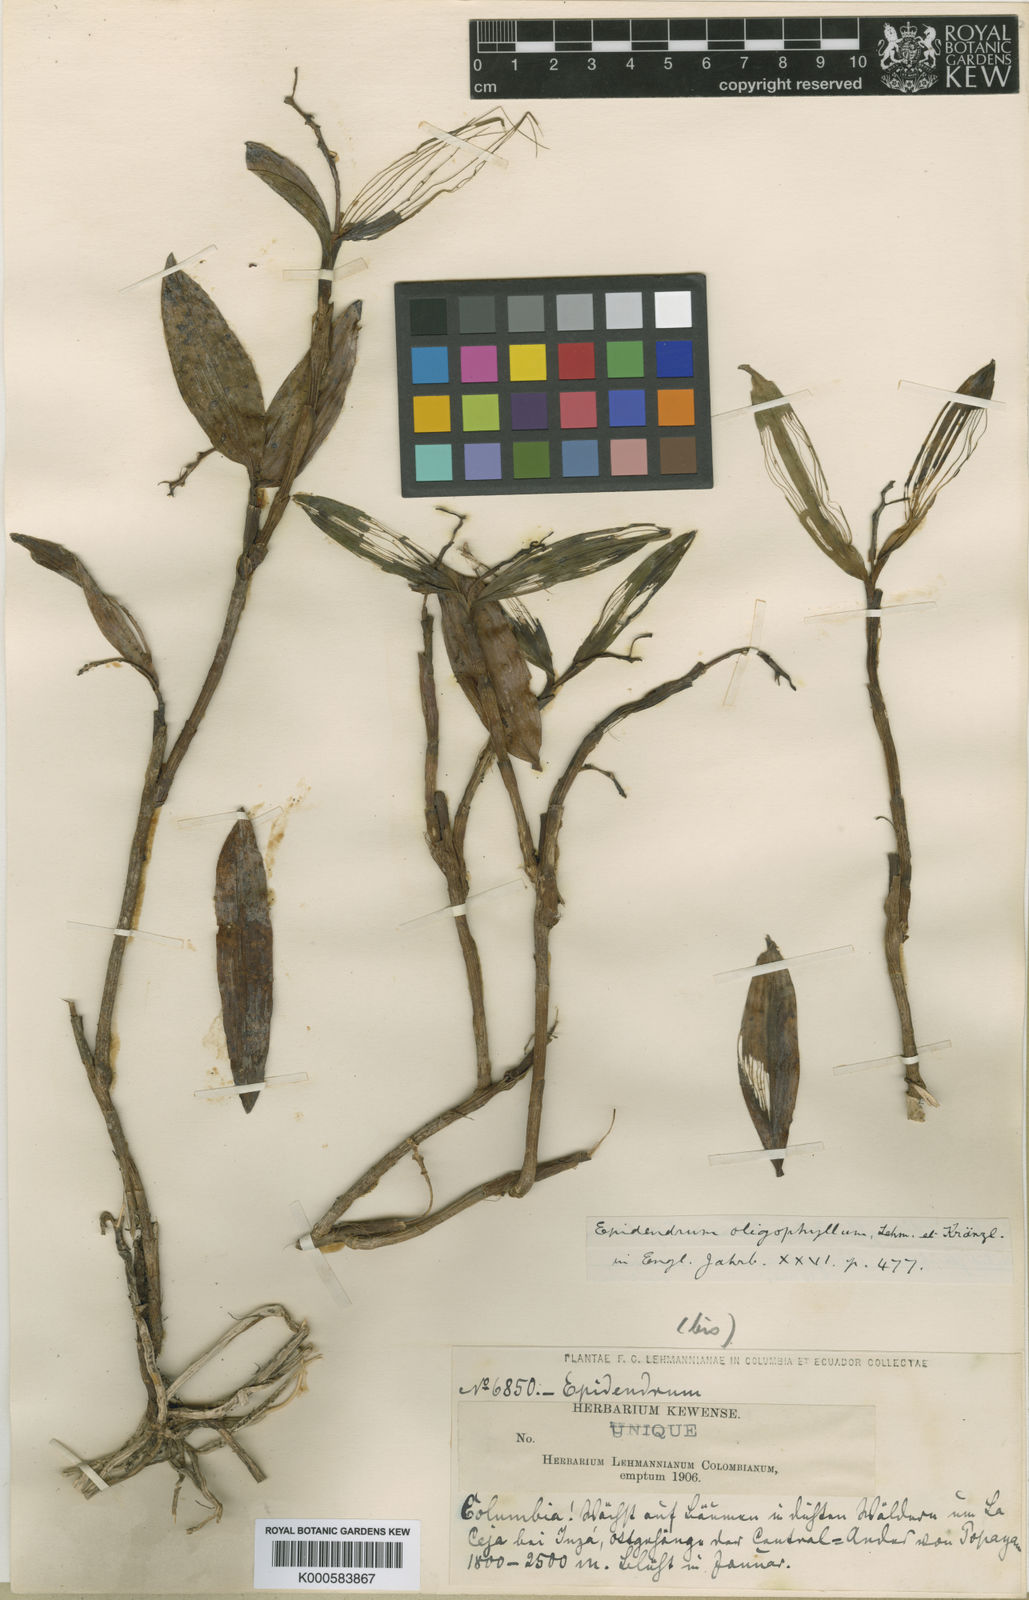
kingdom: Plantae
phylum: Tracheophyta
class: Liliopsida
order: Asparagales
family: Orchidaceae
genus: Epidendrum
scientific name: Epidendrum oligophyllum
